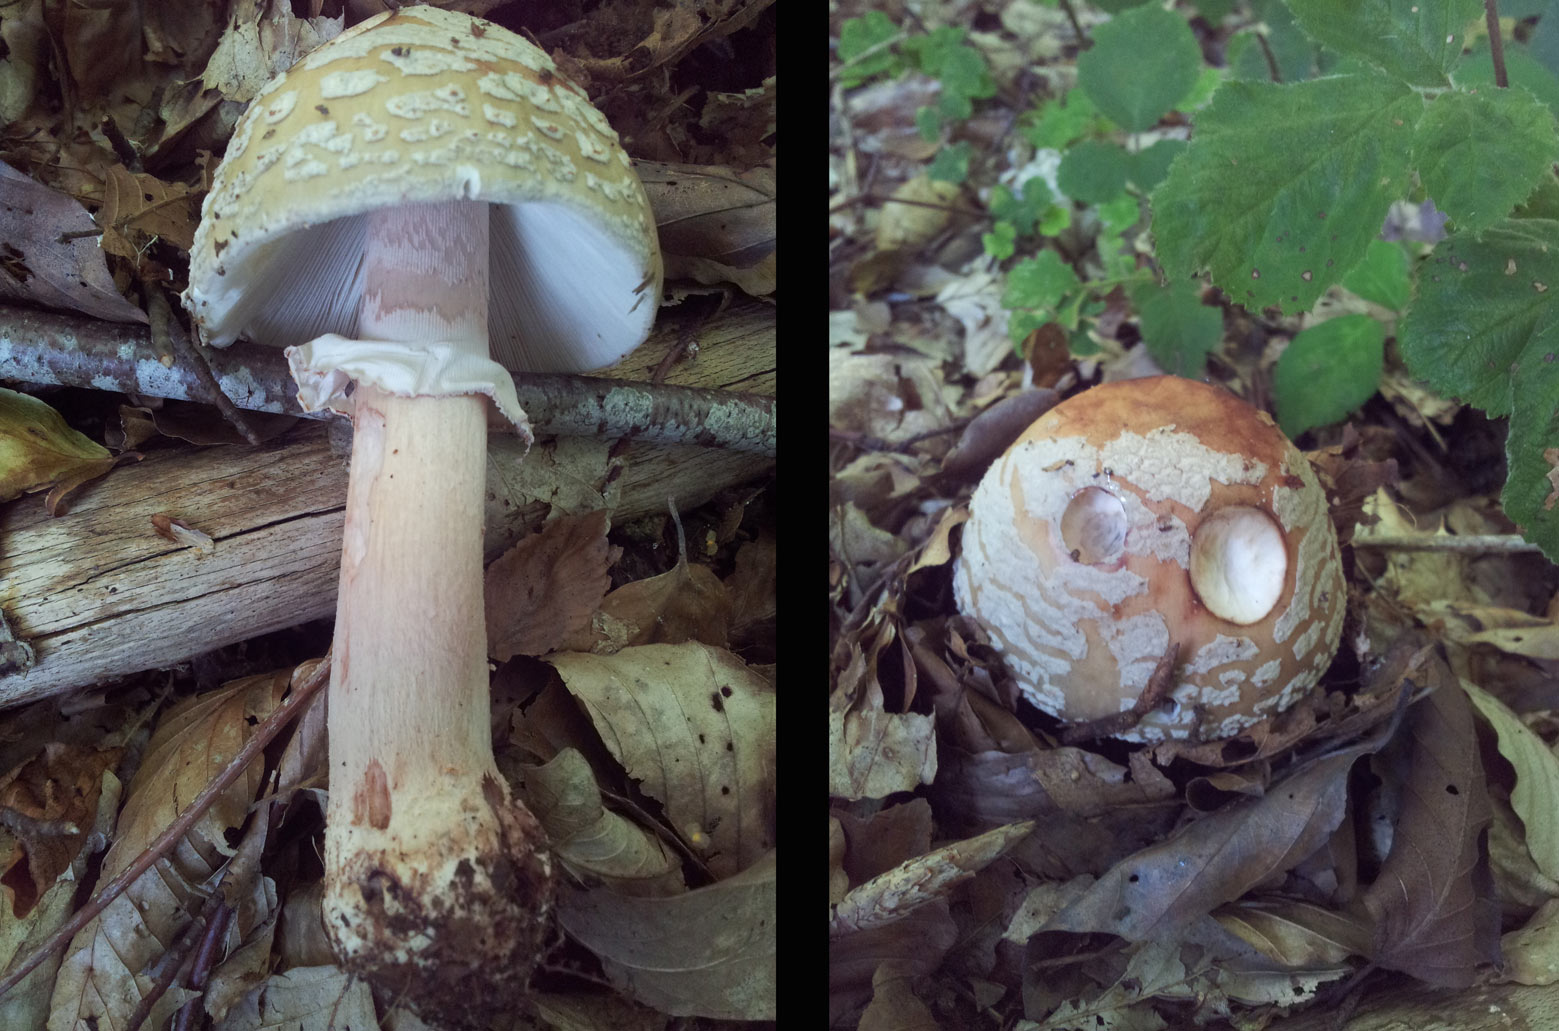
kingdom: Fungi
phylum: Basidiomycota
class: Agaricomycetes
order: Agaricales
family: Amanitaceae
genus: Amanita
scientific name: Amanita rubescens
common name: rødmende fluesvamp
